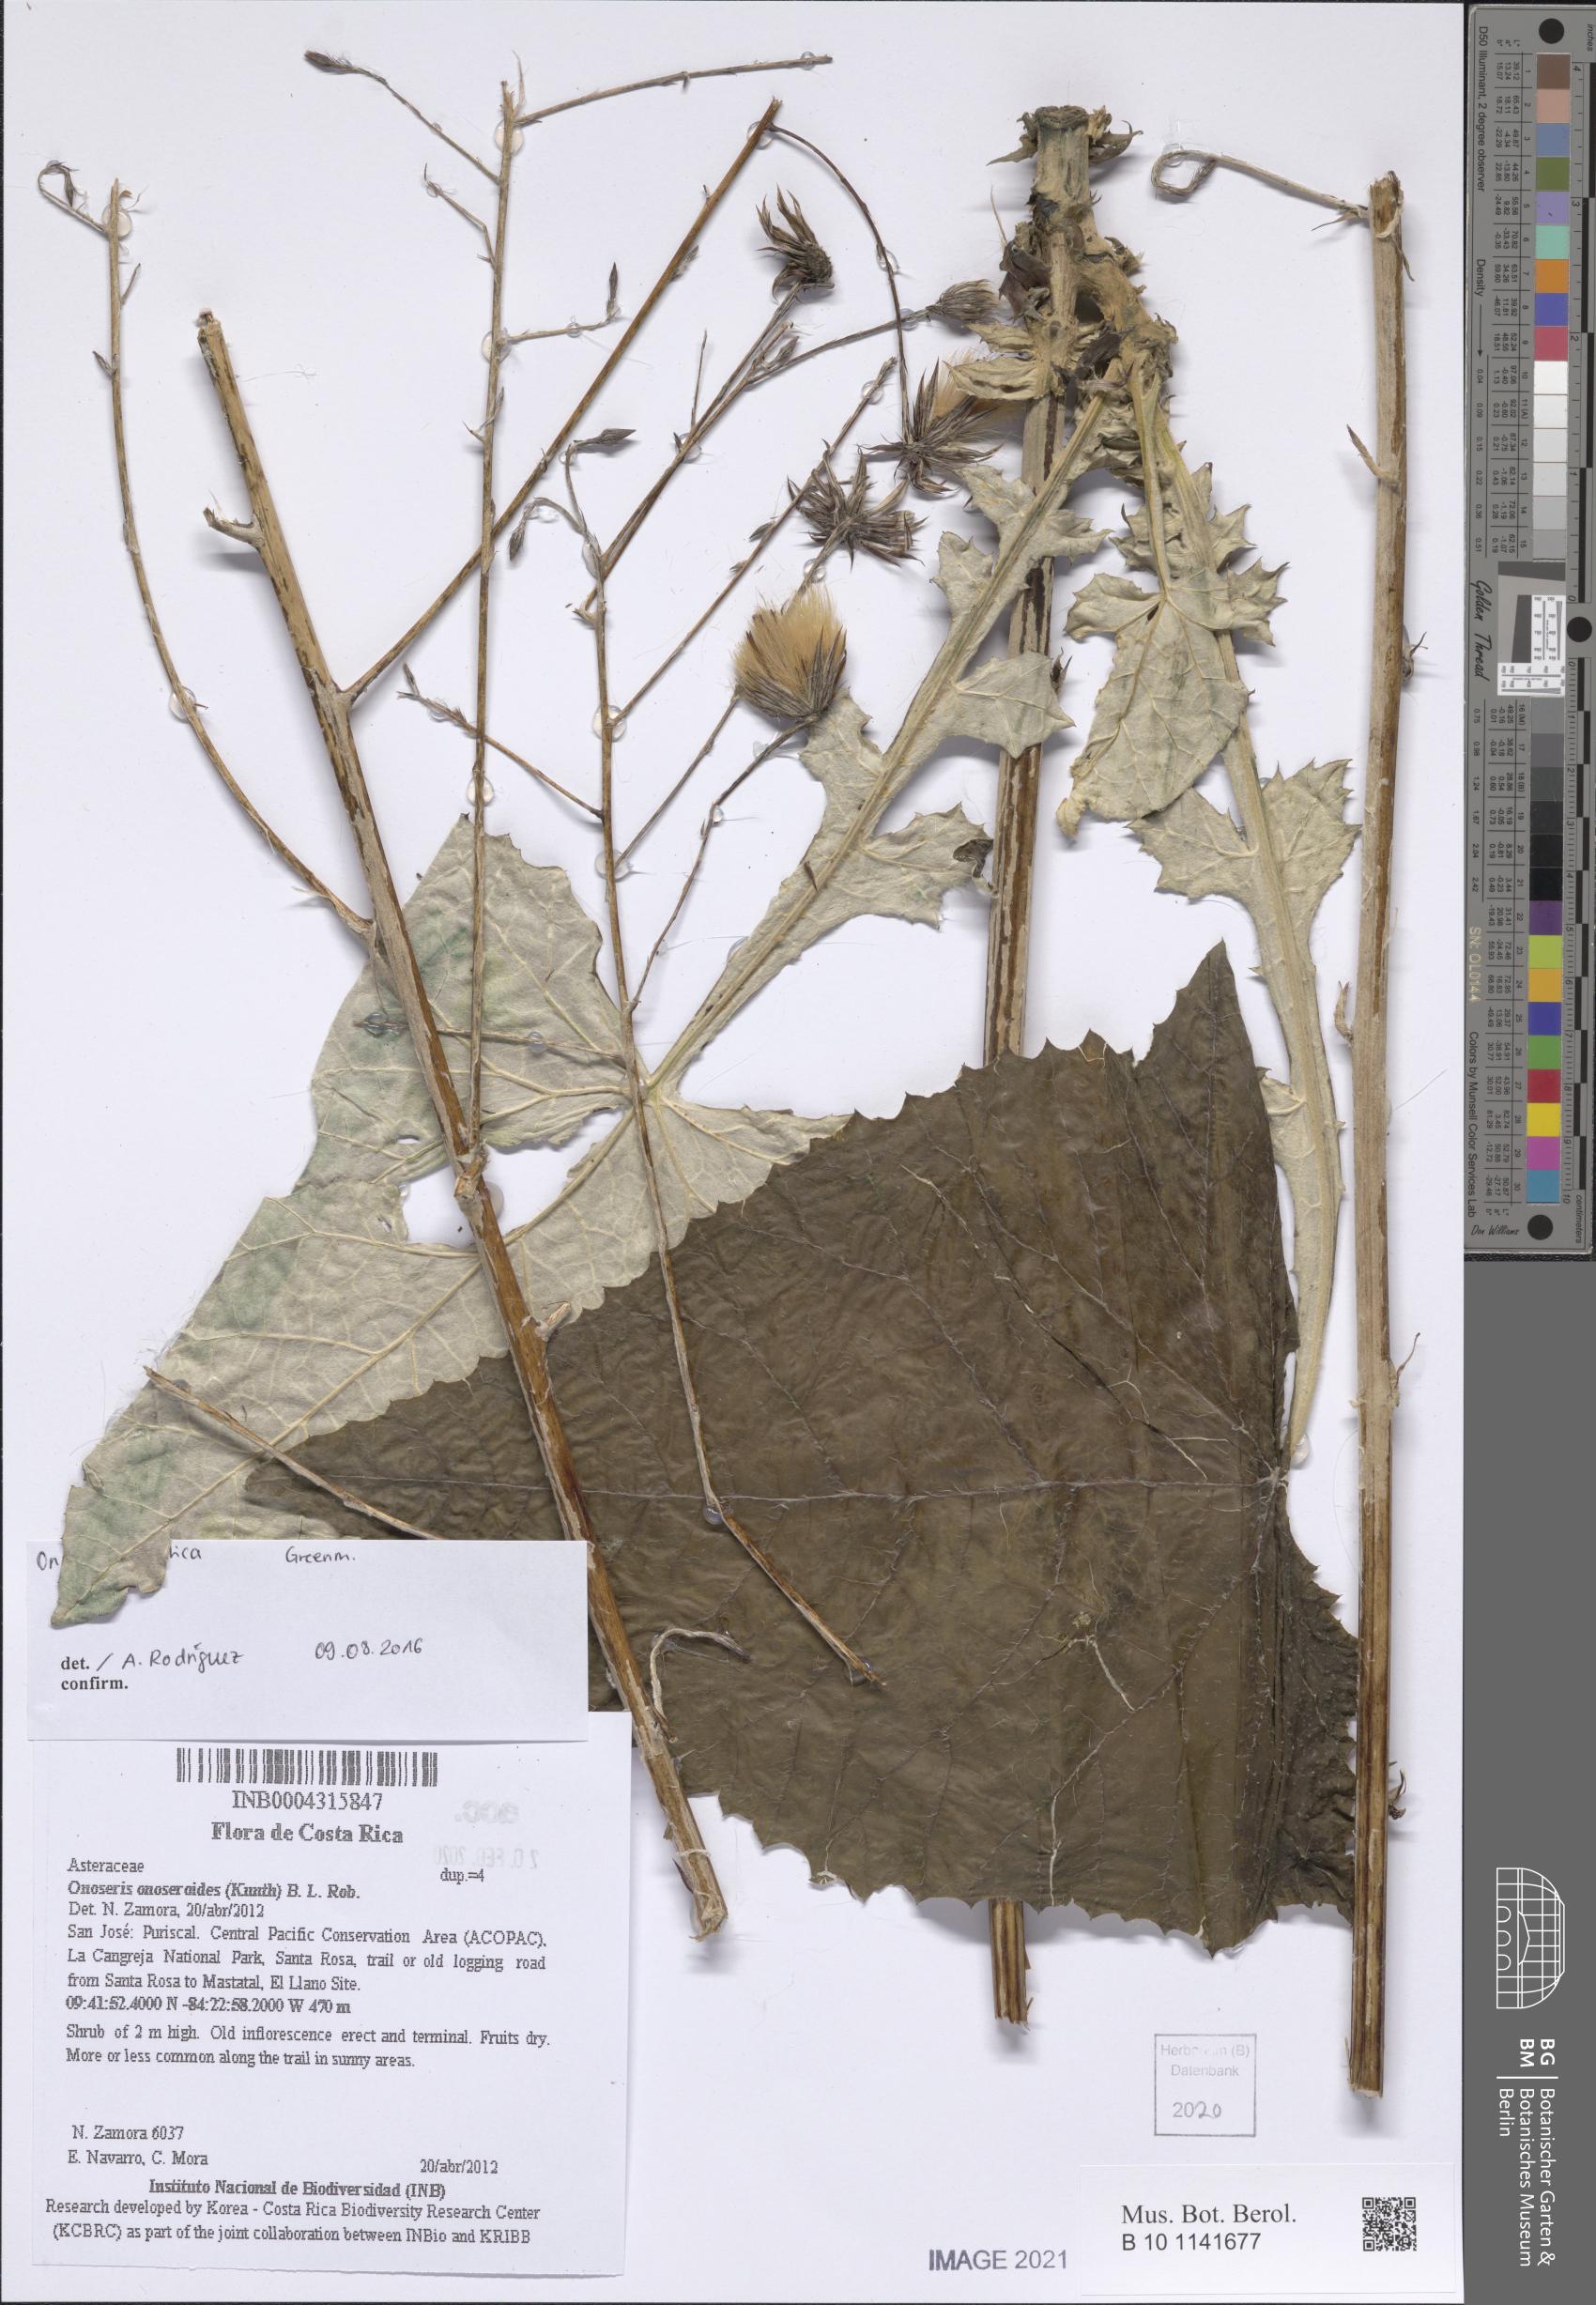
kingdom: Plantae
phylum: Tracheophyta
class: Magnoliopsida
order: Asterales
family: Asteraceae
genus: Onoseris
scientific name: Onoseris onoseroides
